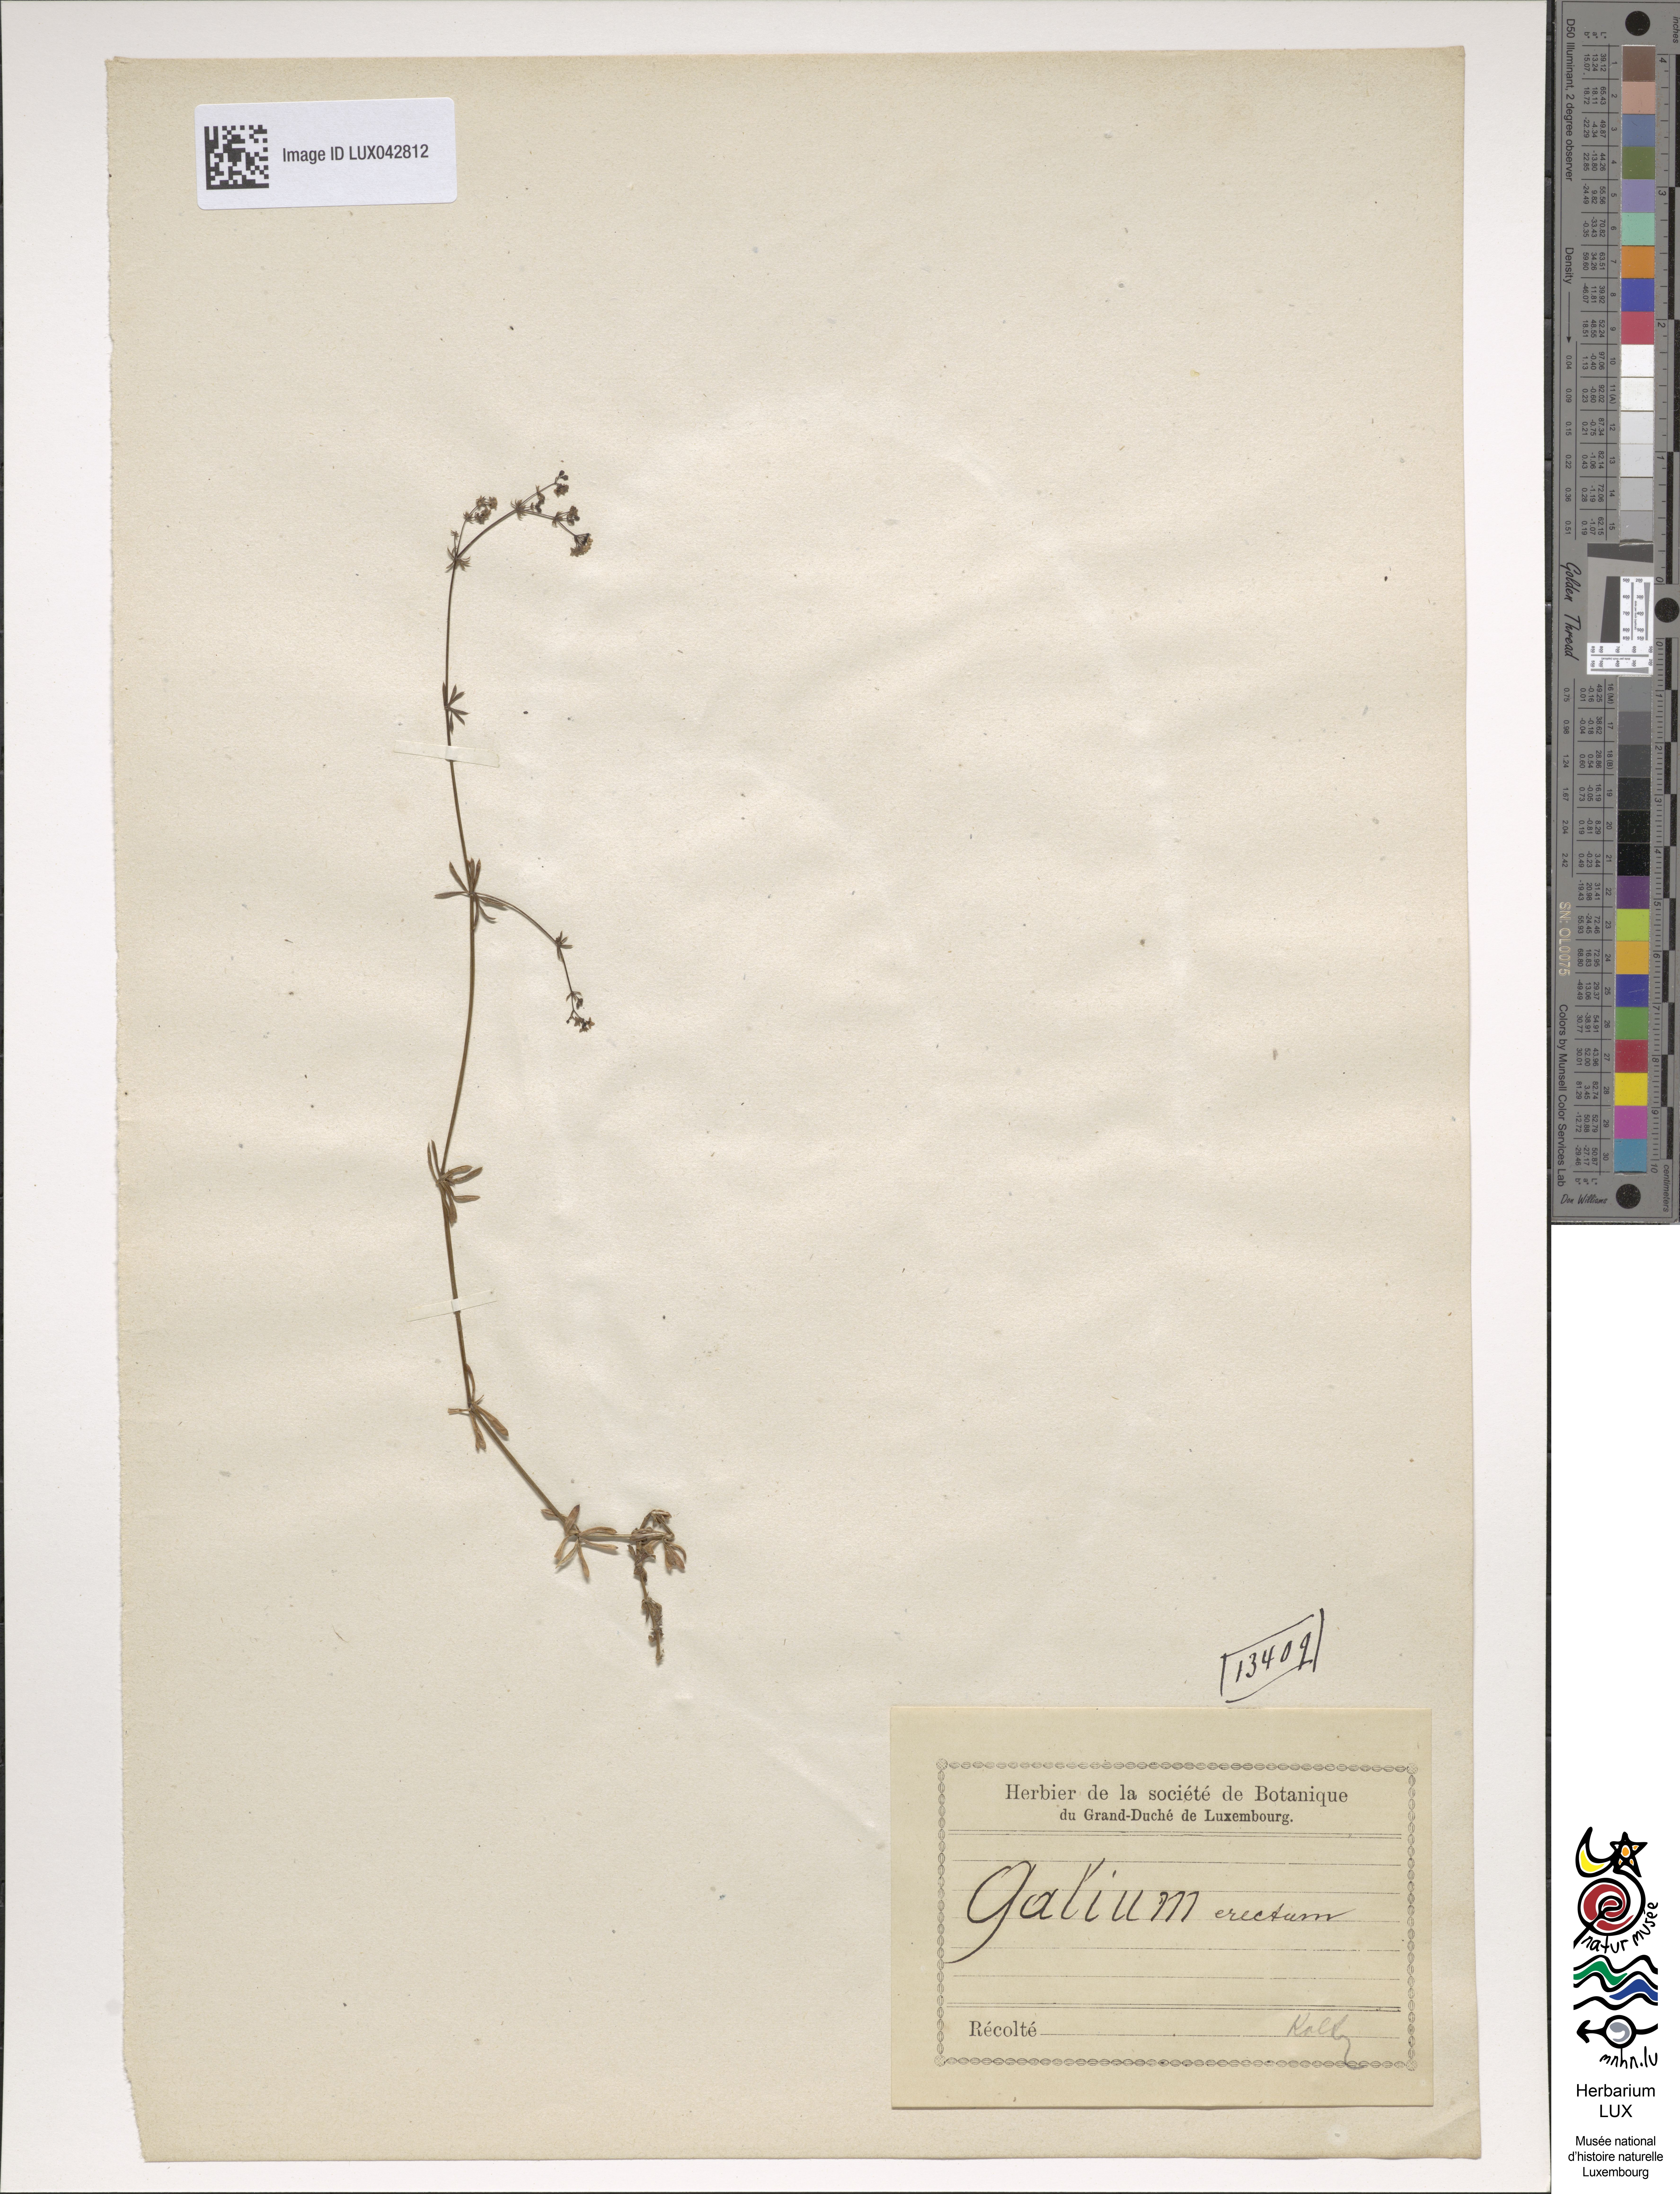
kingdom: Plantae
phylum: Tracheophyta
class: Magnoliopsida
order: Gentianales
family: Rubiaceae
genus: Galium
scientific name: Galium album
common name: White bedstraw
